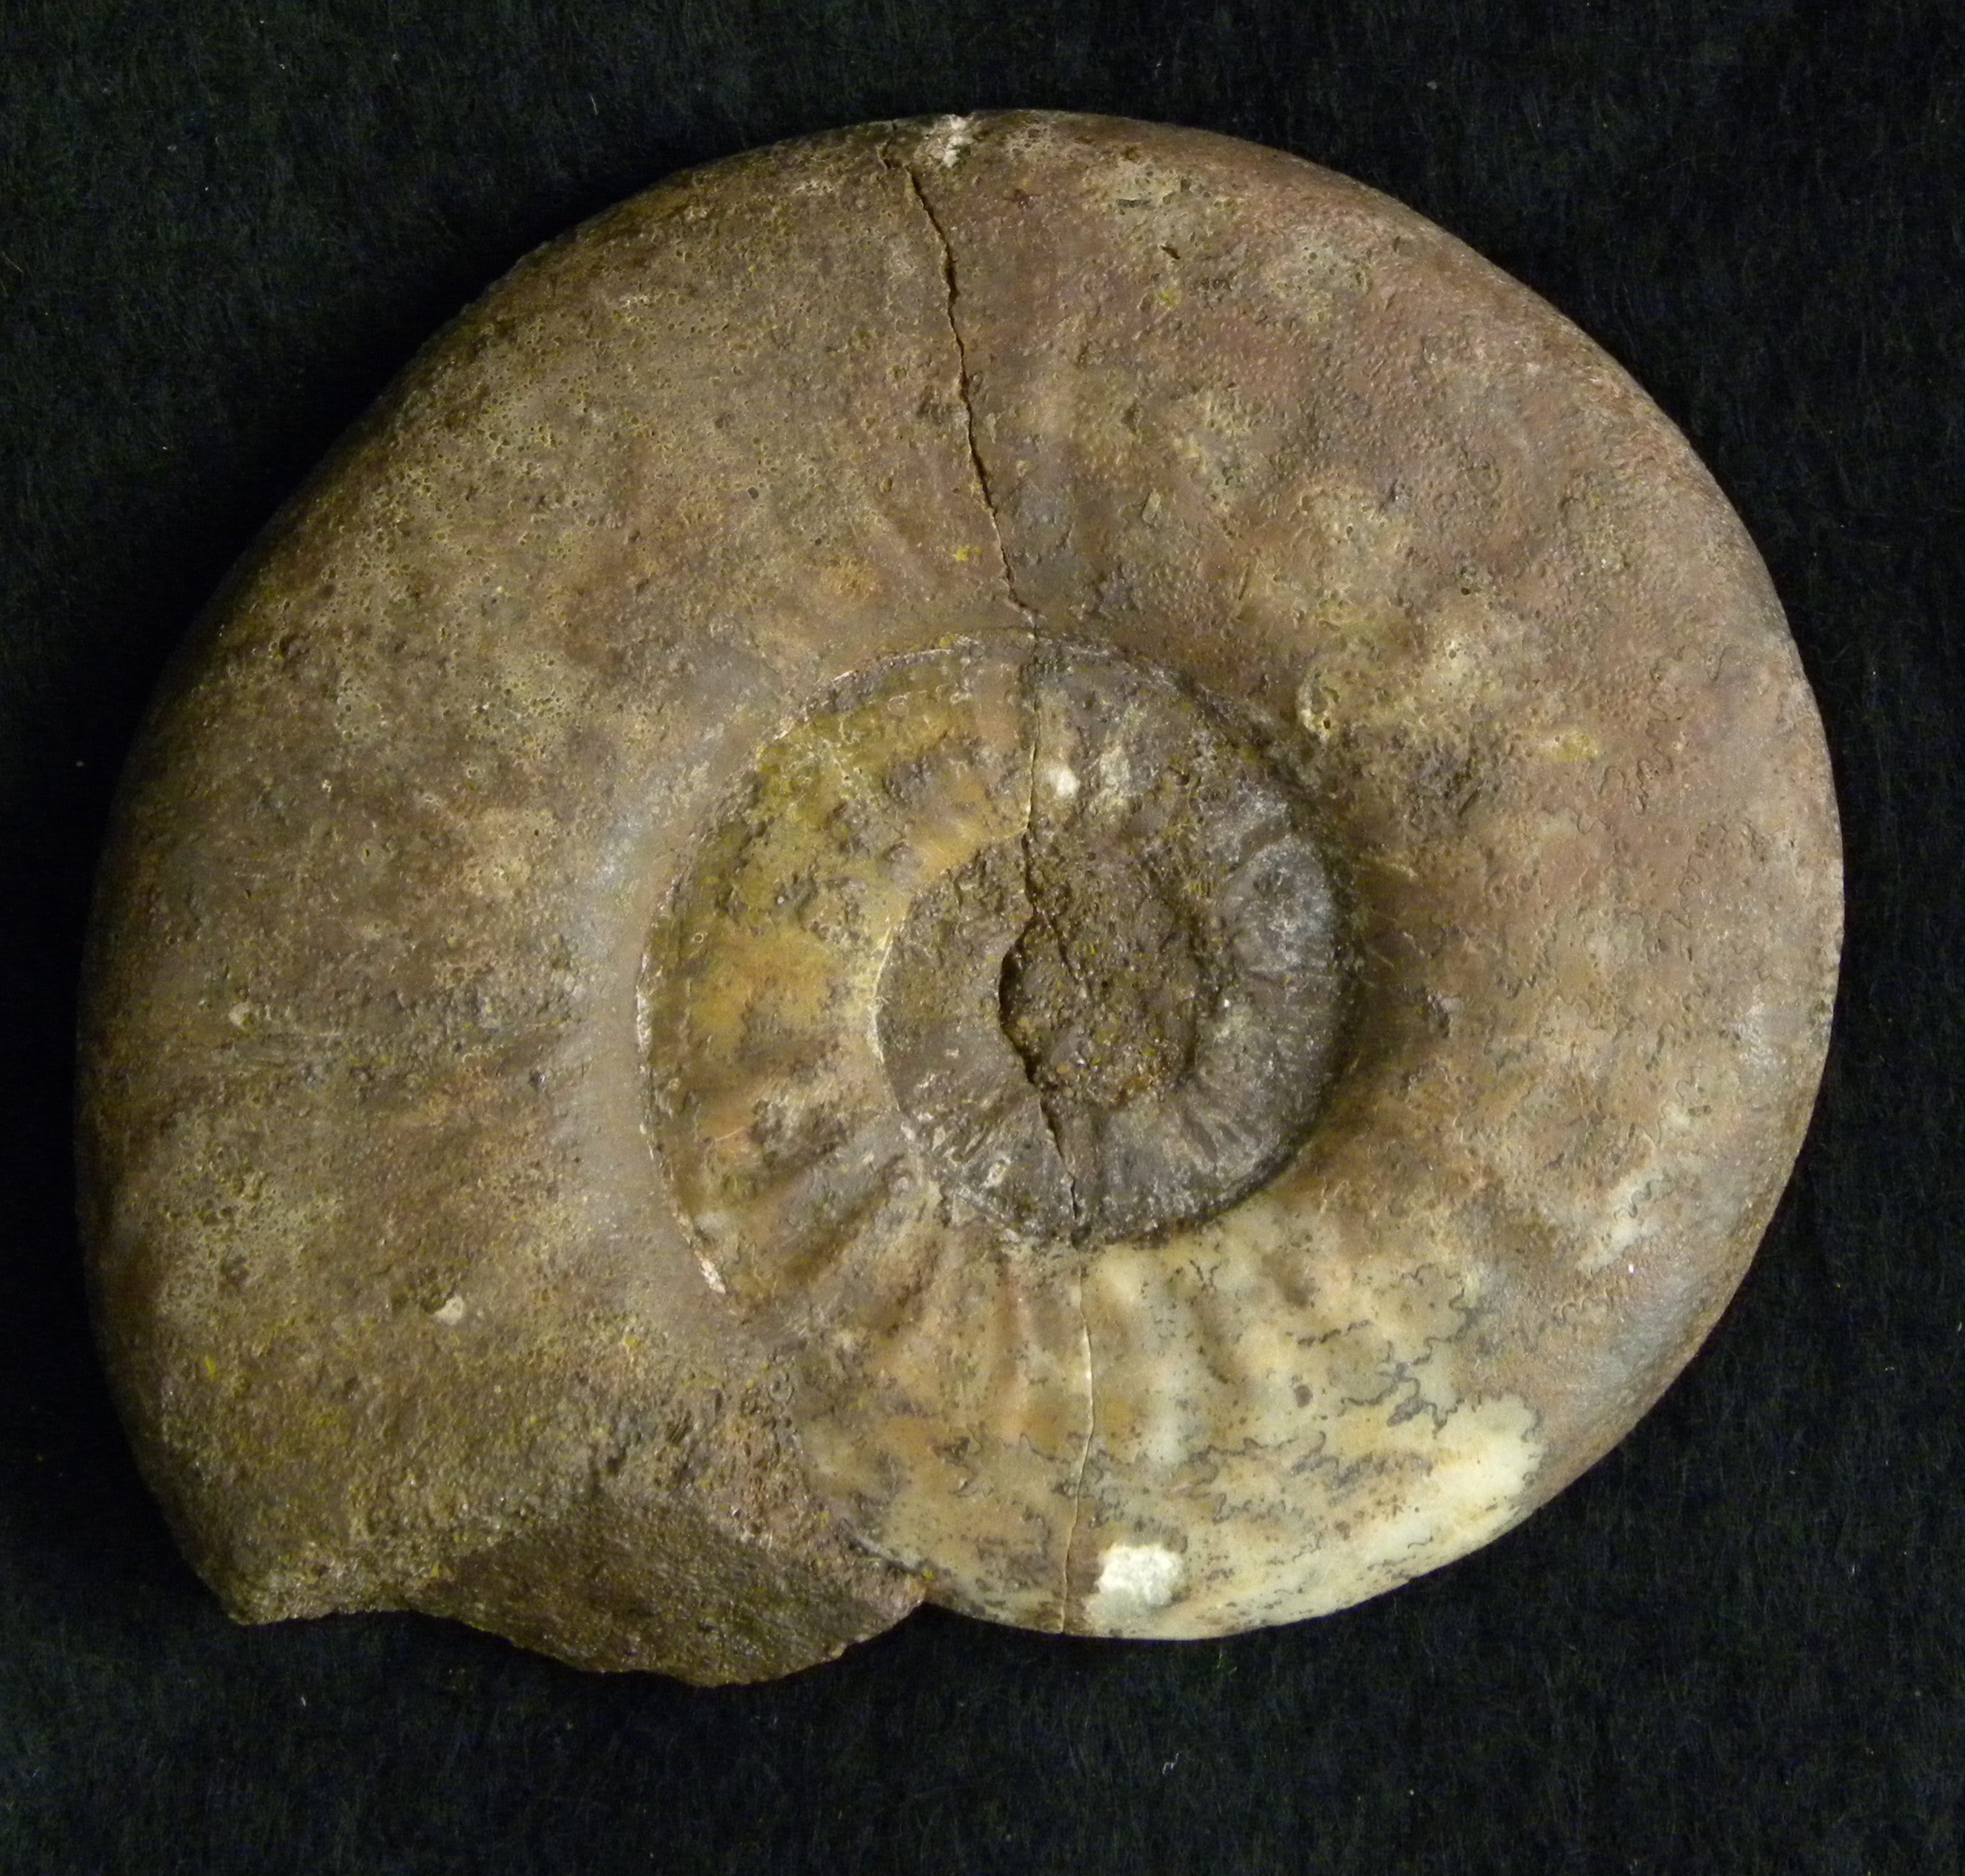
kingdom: Animalia
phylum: Mollusca
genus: Walkericeras
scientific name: Walkericeras
